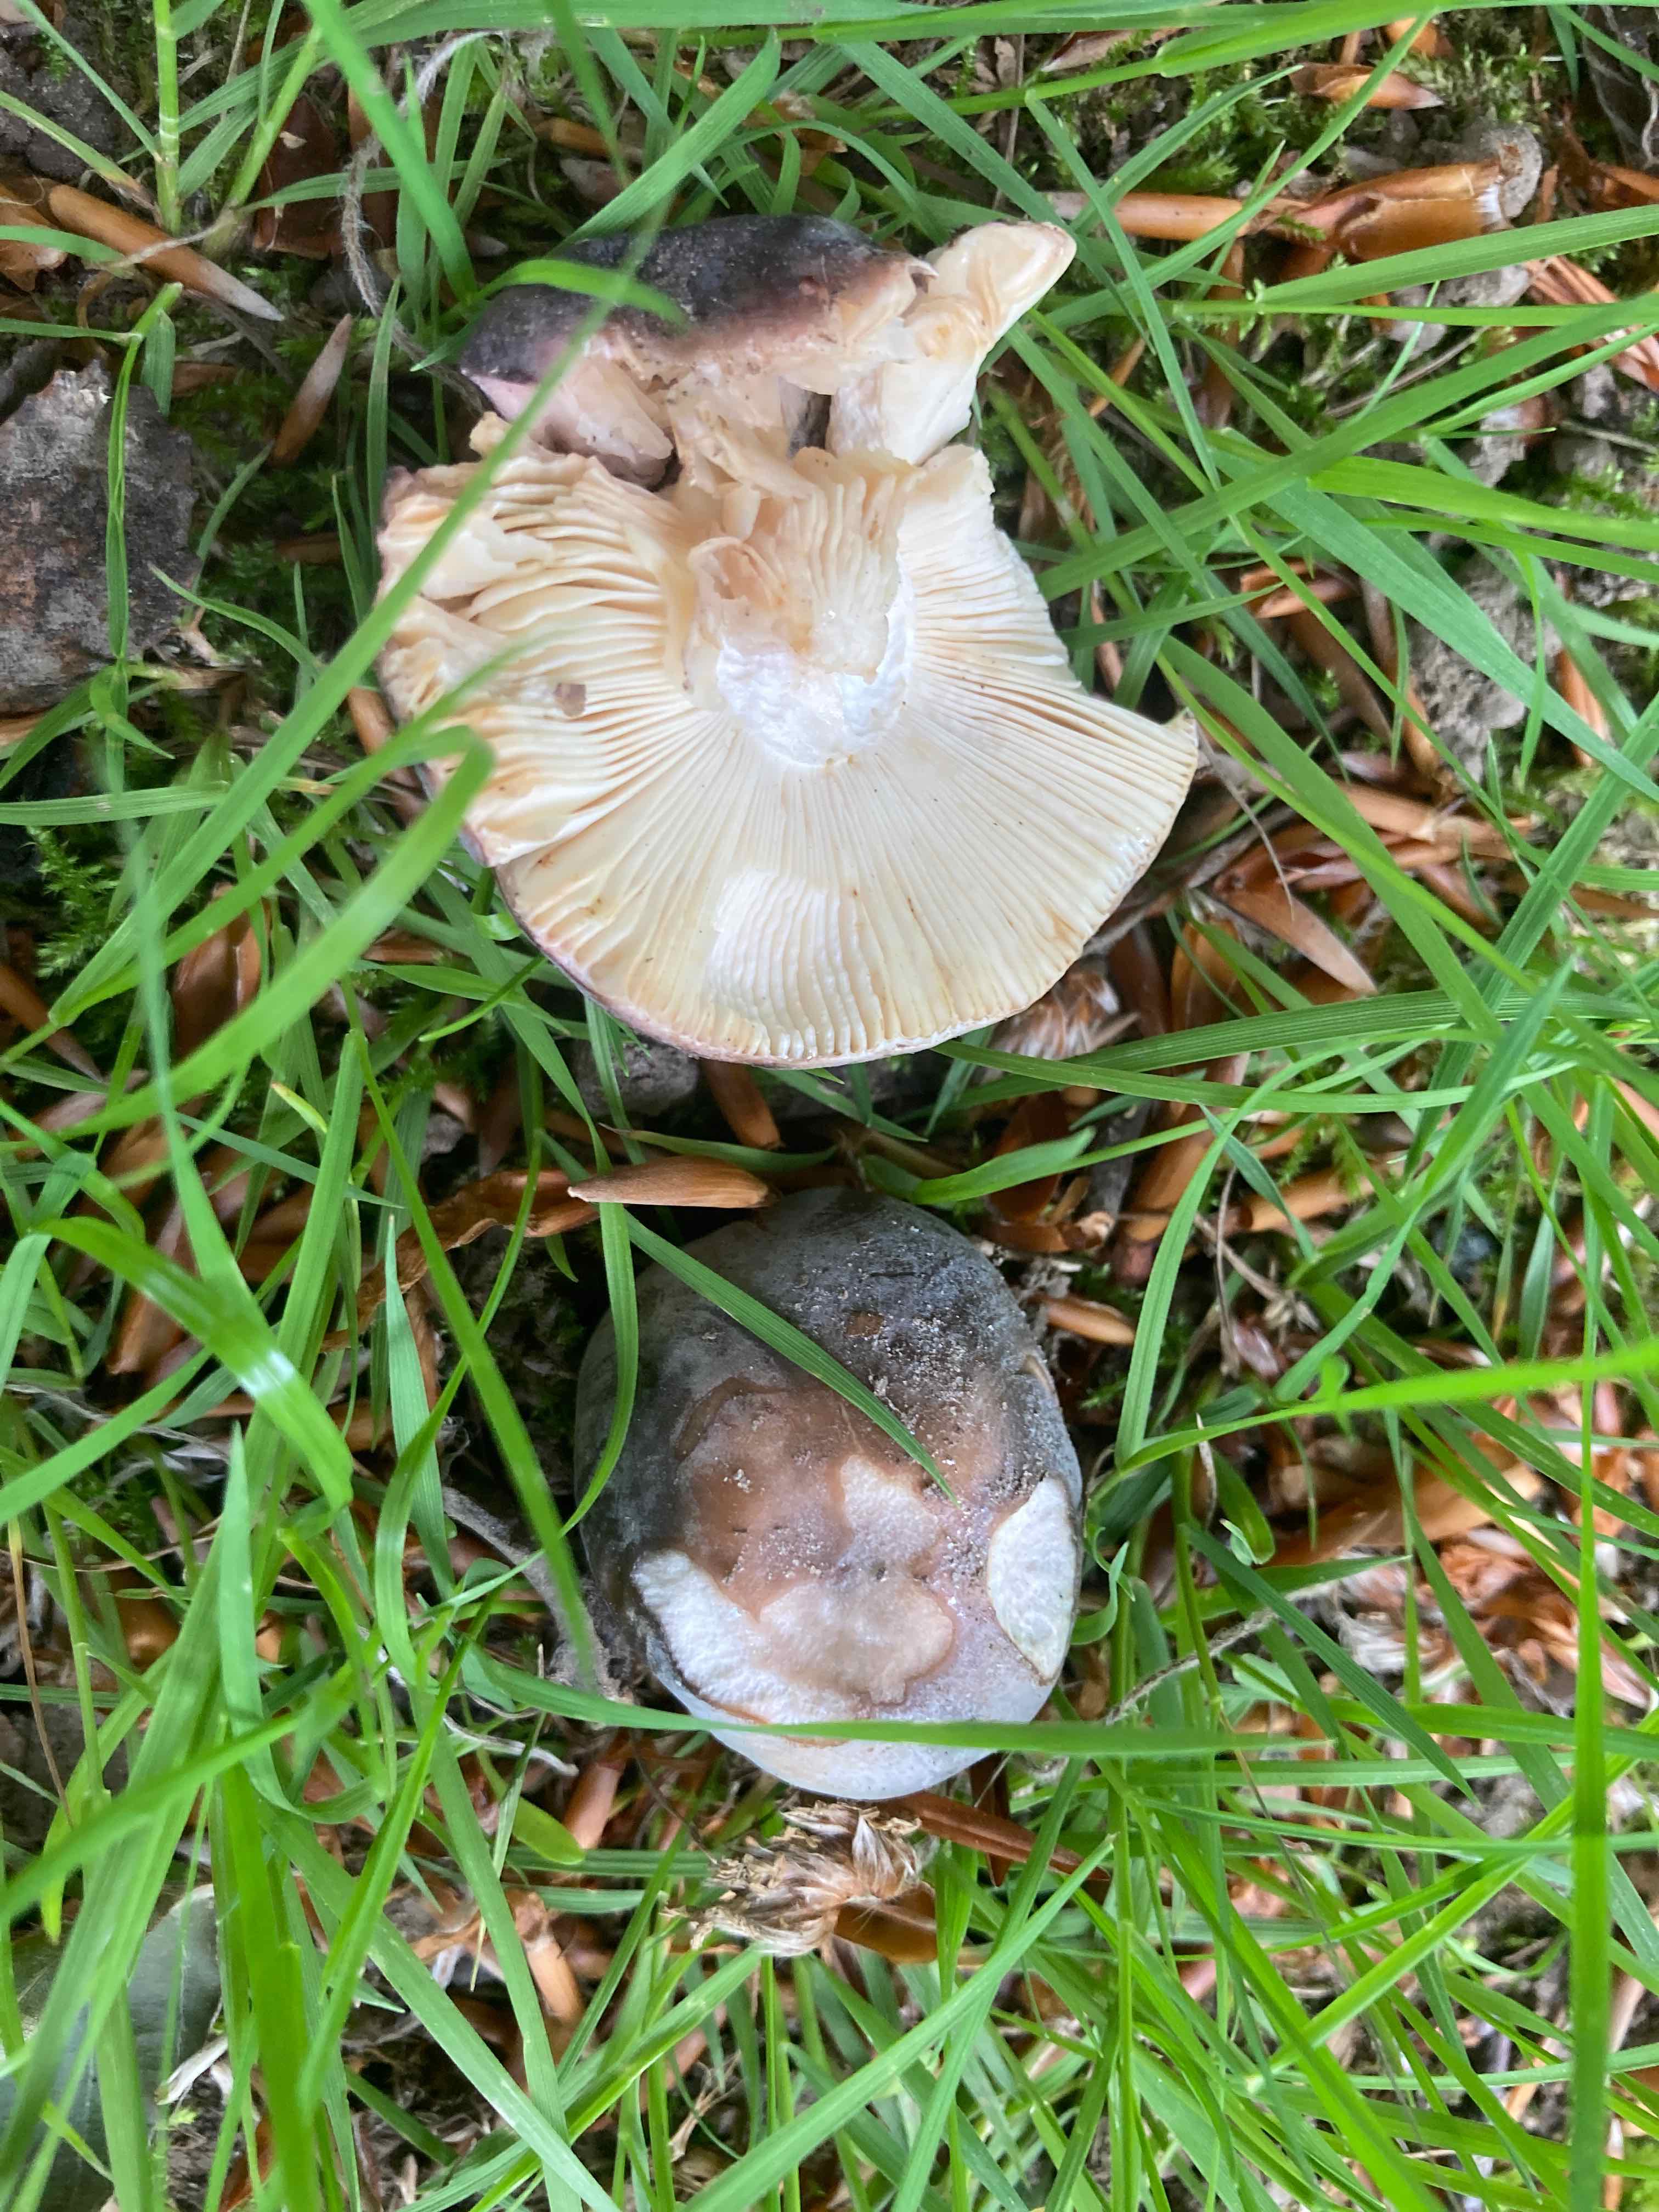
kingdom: Fungi
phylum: Basidiomycota
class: Agaricomycetes
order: Russulales
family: Russulaceae
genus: Russula
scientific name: Russula parazurea
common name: blågrå skørhat
